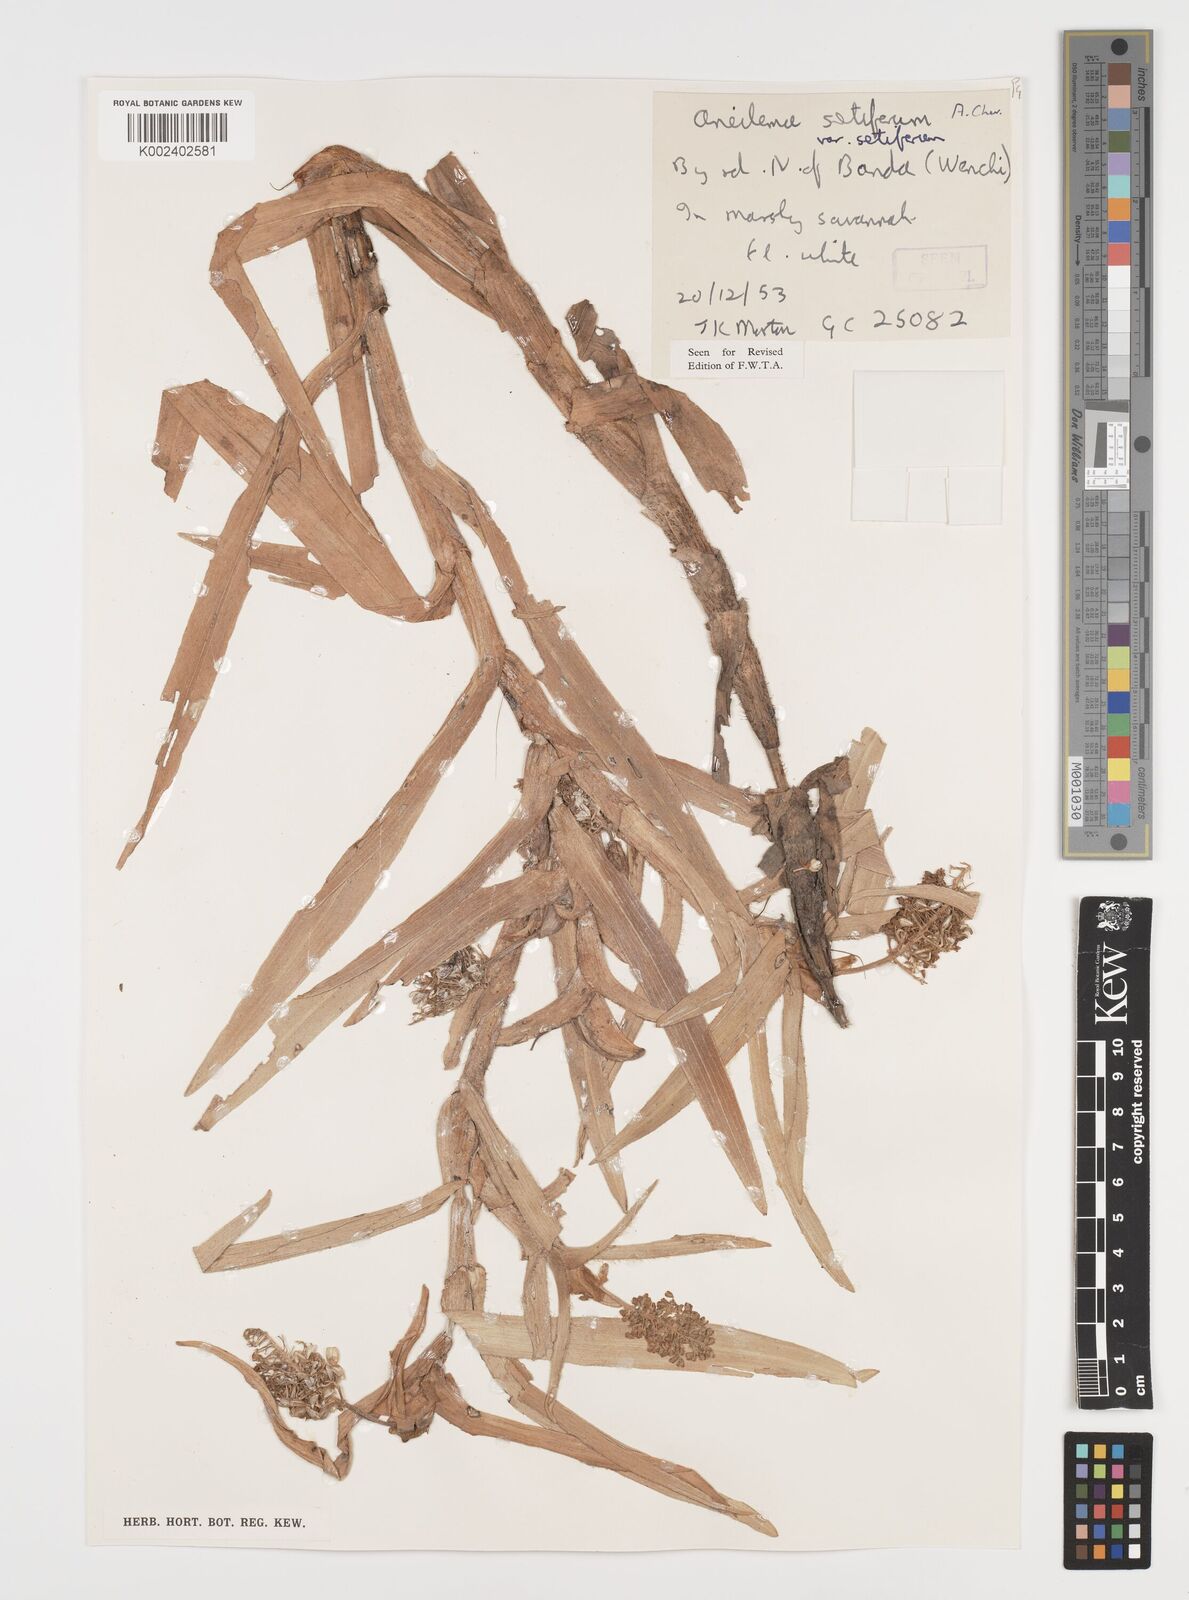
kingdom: Plantae
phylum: Tracheophyta
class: Liliopsida
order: Commelinales
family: Commelinaceae
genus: Aneilema
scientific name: Aneilema setiferum
